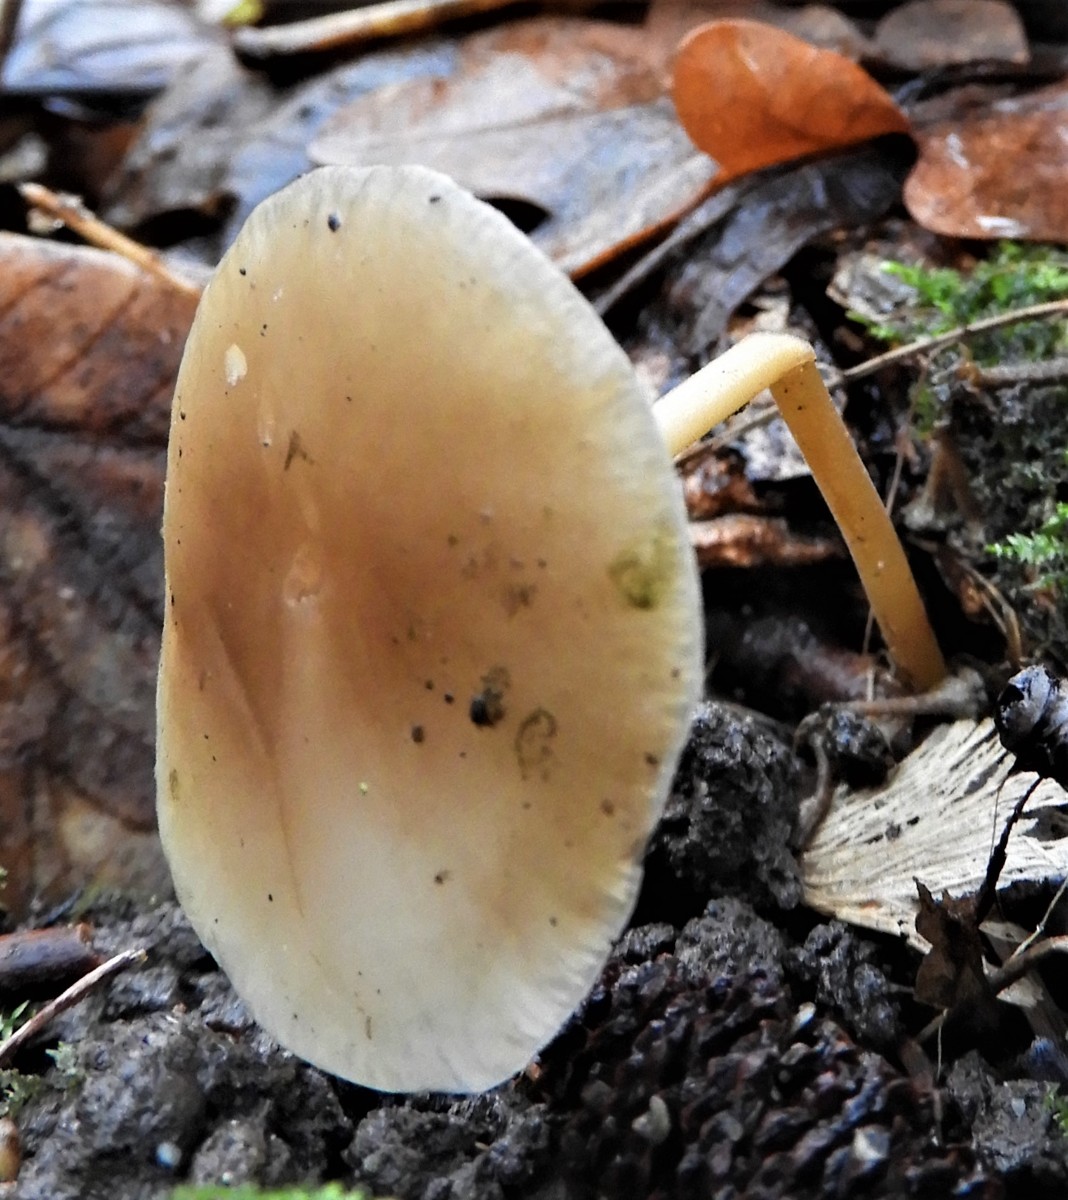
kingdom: Fungi
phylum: Basidiomycota
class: Agaricomycetes
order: Agaricales
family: Omphalotaceae
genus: Gymnopus
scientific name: Gymnopus dryophilus
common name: løv-fladhat
